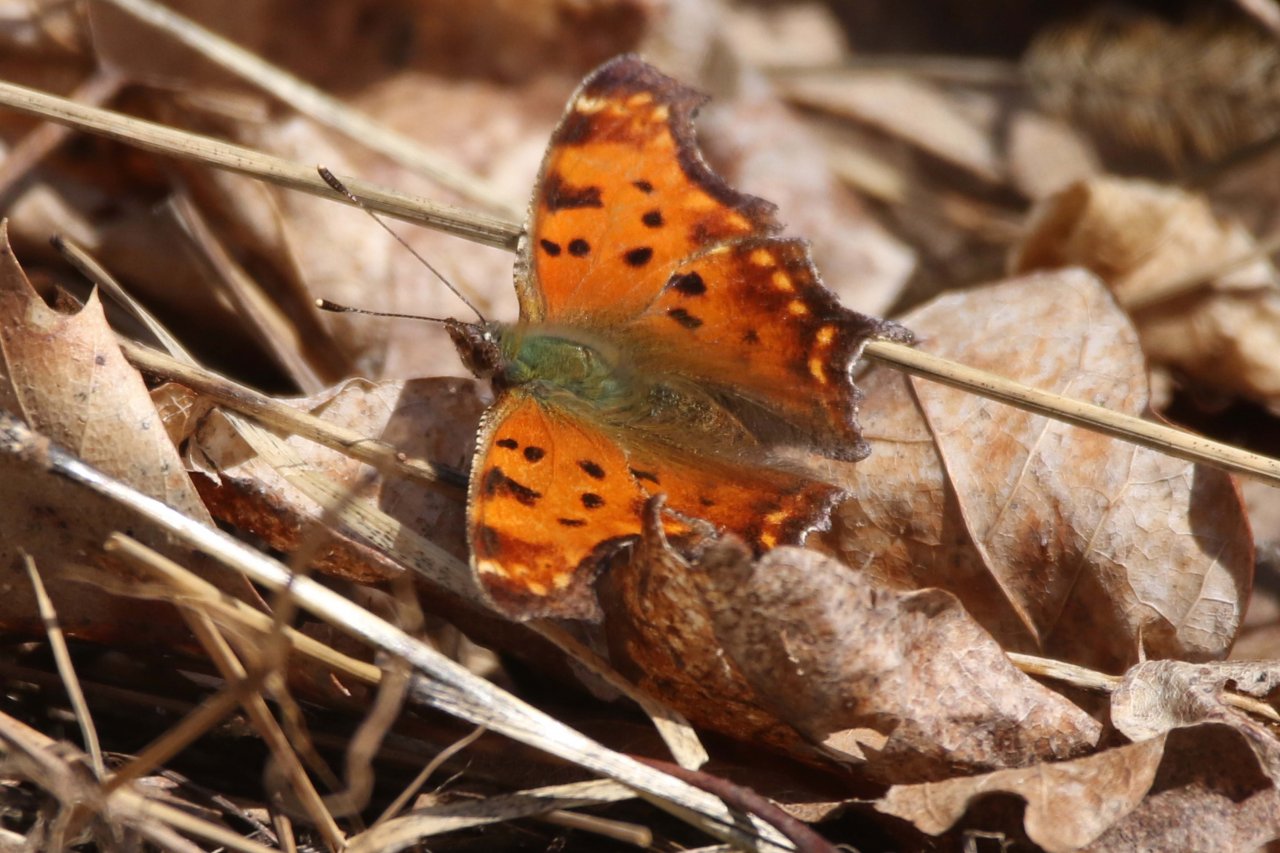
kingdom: Animalia
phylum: Arthropoda
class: Insecta
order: Lepidoptera
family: Nymphalidae
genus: Polygonia
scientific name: Polygonia comma
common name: Eastern Comma
